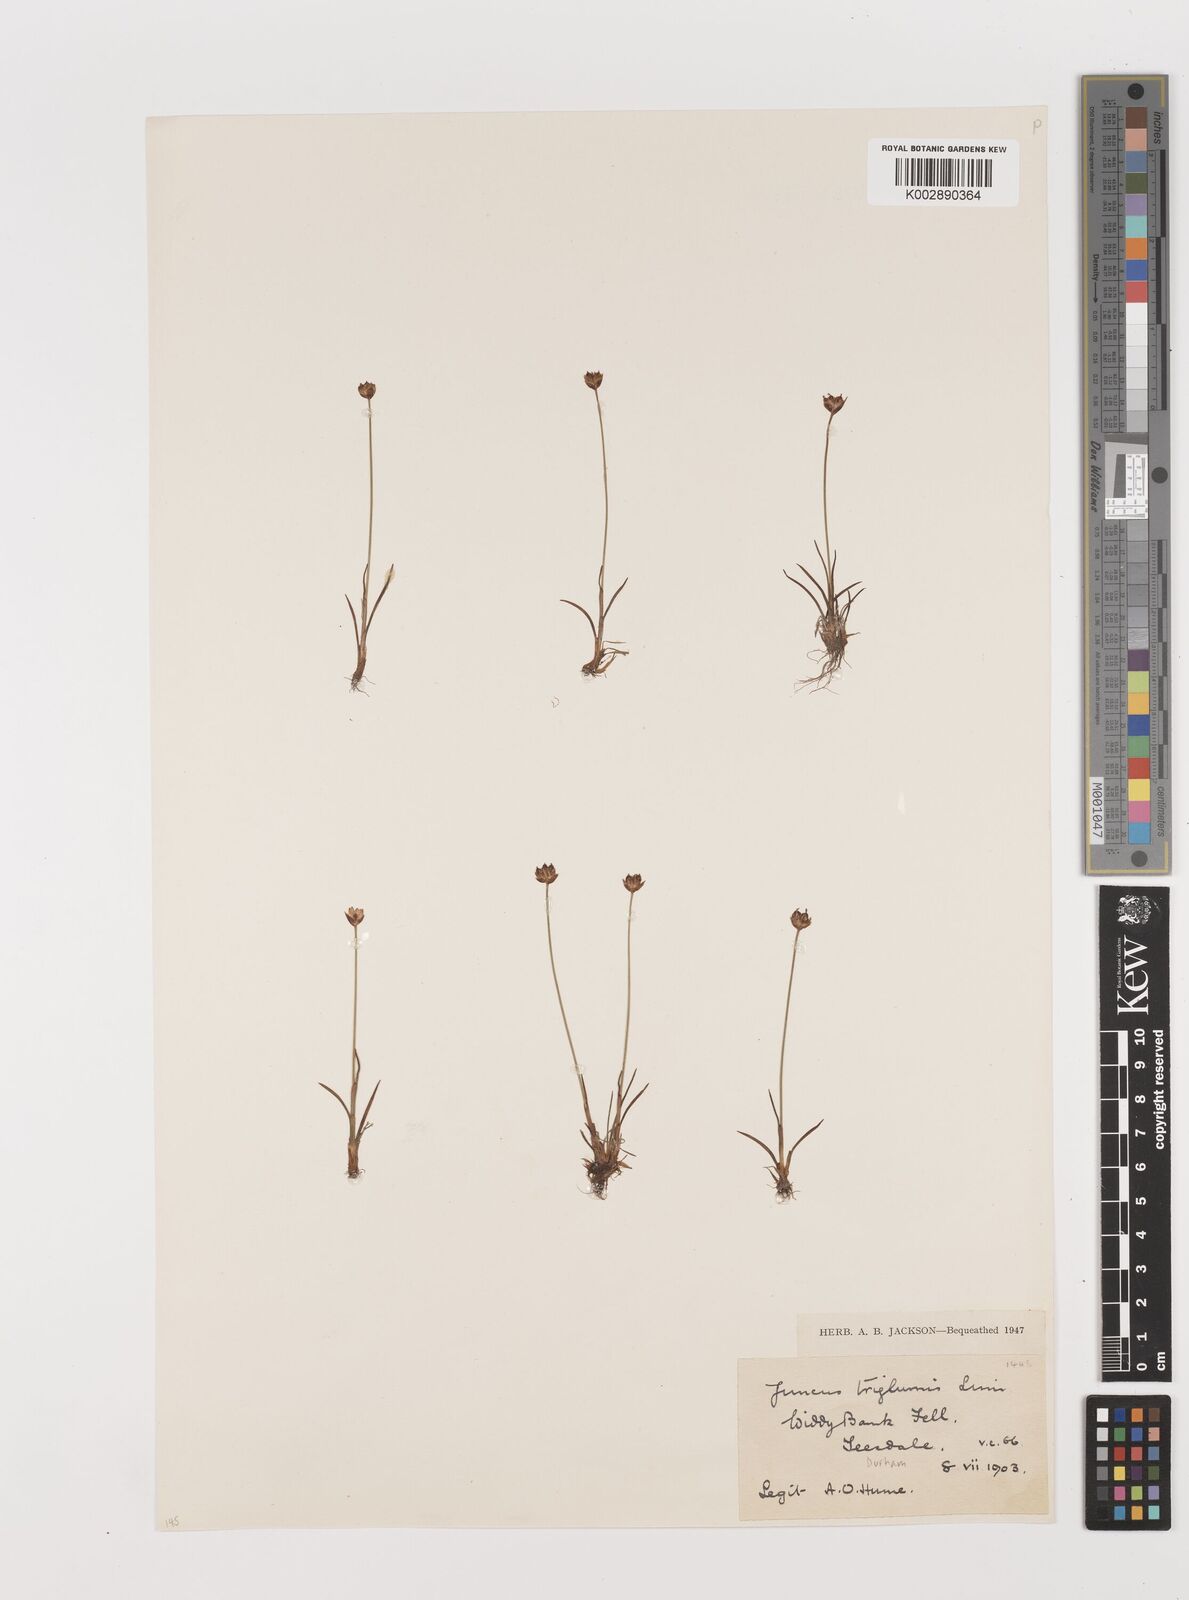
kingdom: Plantae
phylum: Tracheophyta
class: Liliopsida
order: Poales
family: Juncaceae
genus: Juncus
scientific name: Juncus triglumis
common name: Three-flowered rush
